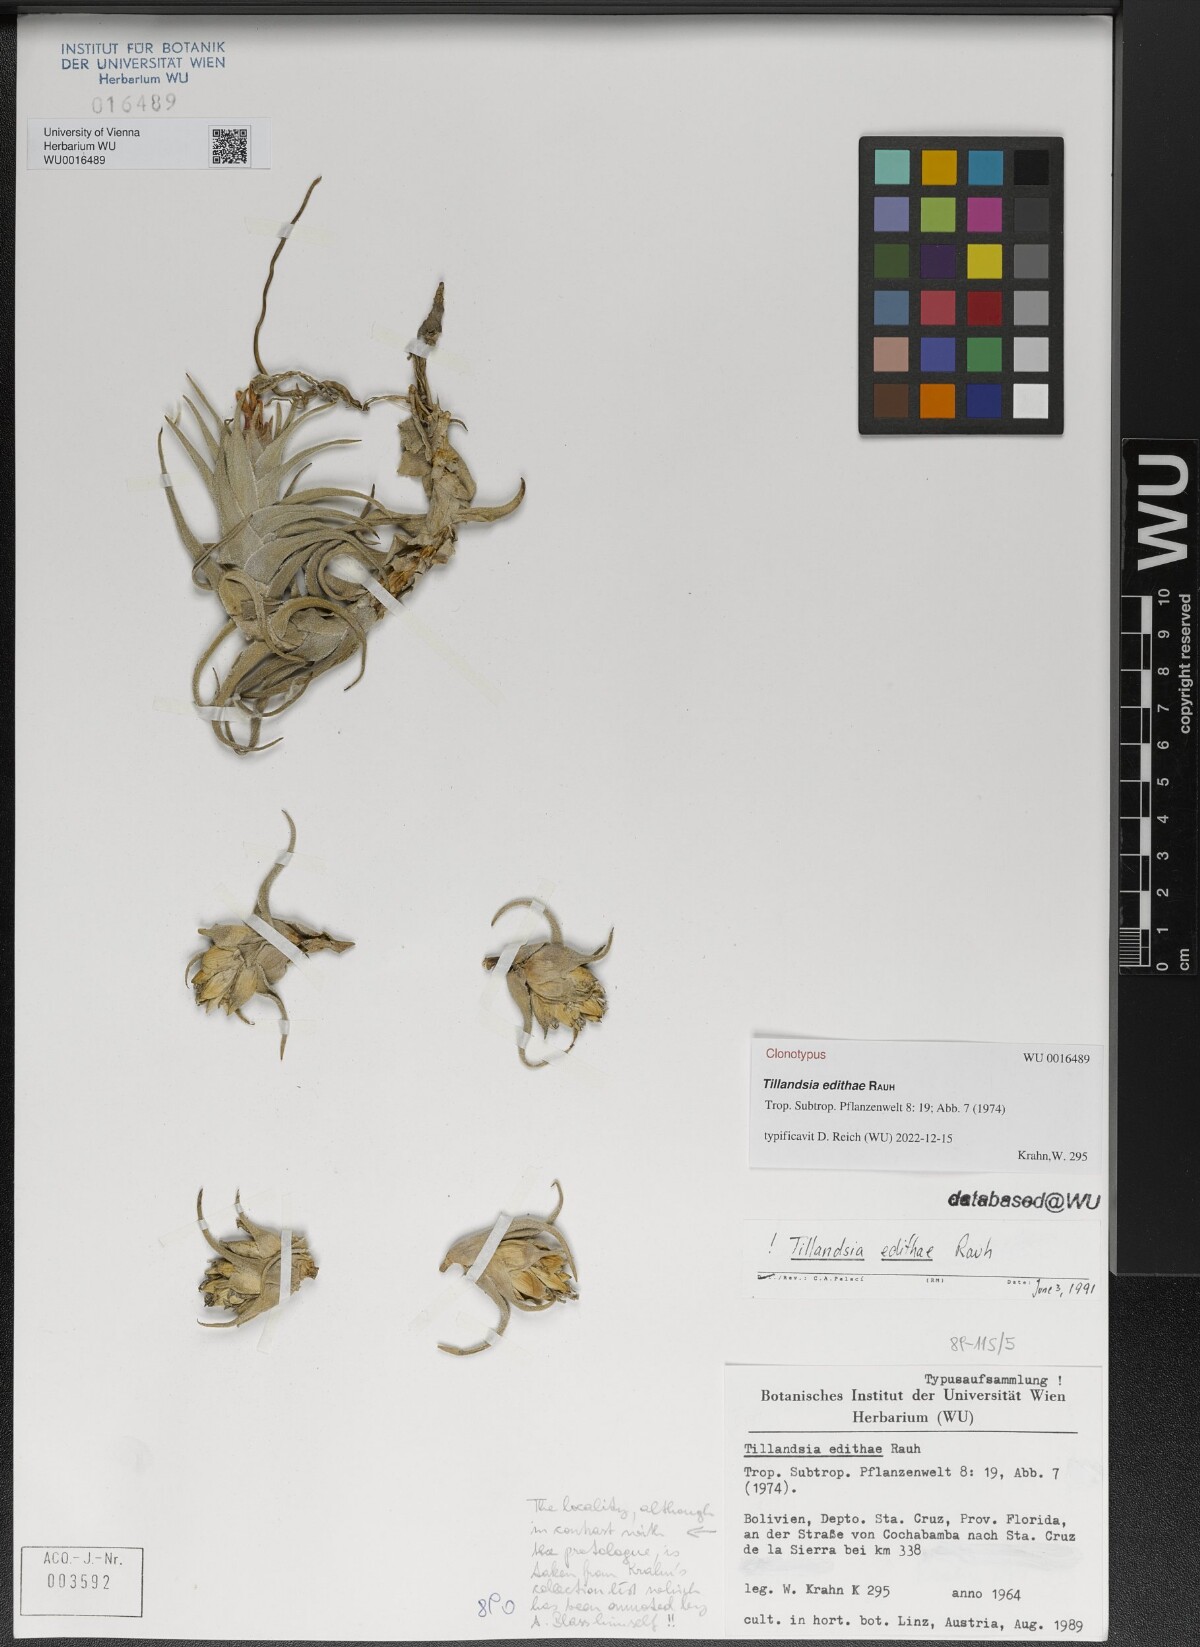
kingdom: Plantae
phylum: Tracheophyta
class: Liliopsida
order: Poales
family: Bromeliaceae
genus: Tillandsia
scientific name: Tillandsia edithae
